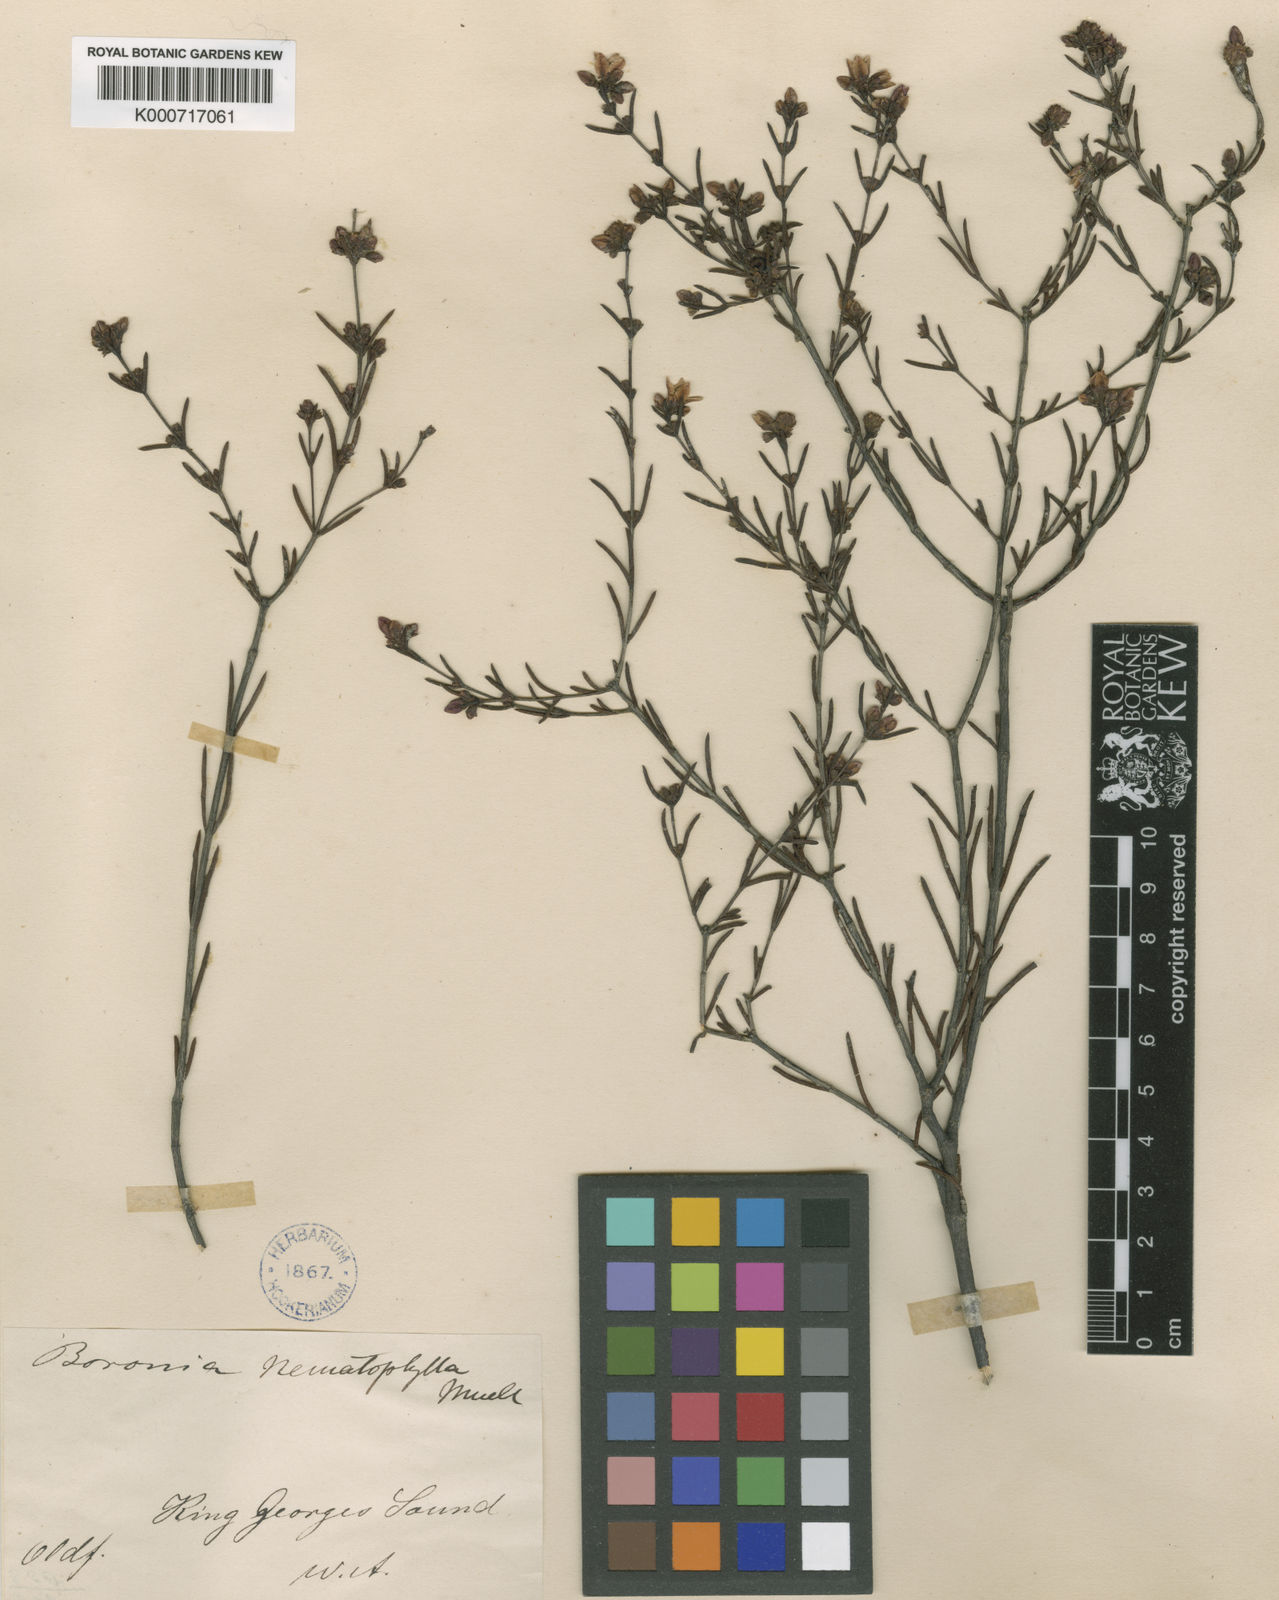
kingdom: Plantae
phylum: Tracheophyta
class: Magnoliopsida
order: Sapindales
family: Rutaceae
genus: Boronia
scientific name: Boronia nematophylla
